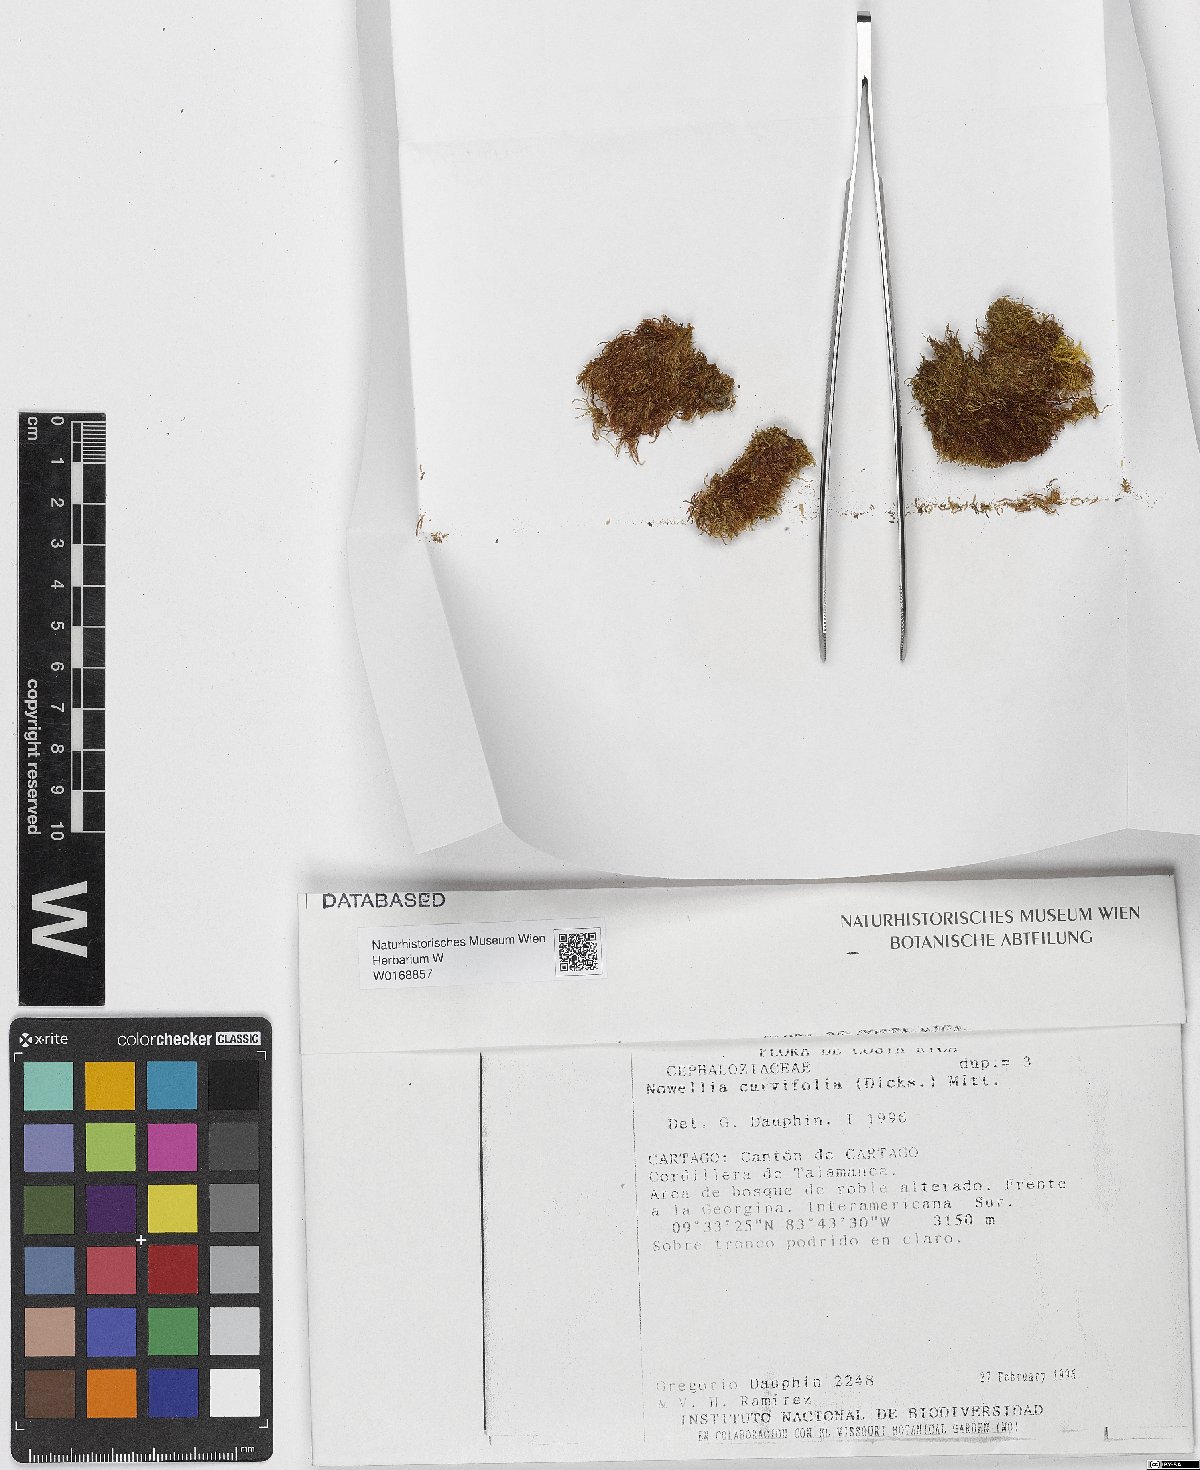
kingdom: Plantae
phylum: Marchantiophyta
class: Jungermanniopsida
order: Jungermanniales
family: Cephaloziaceae
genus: Nowellia
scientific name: Nowellia curvifolia
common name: Wood rustwort
